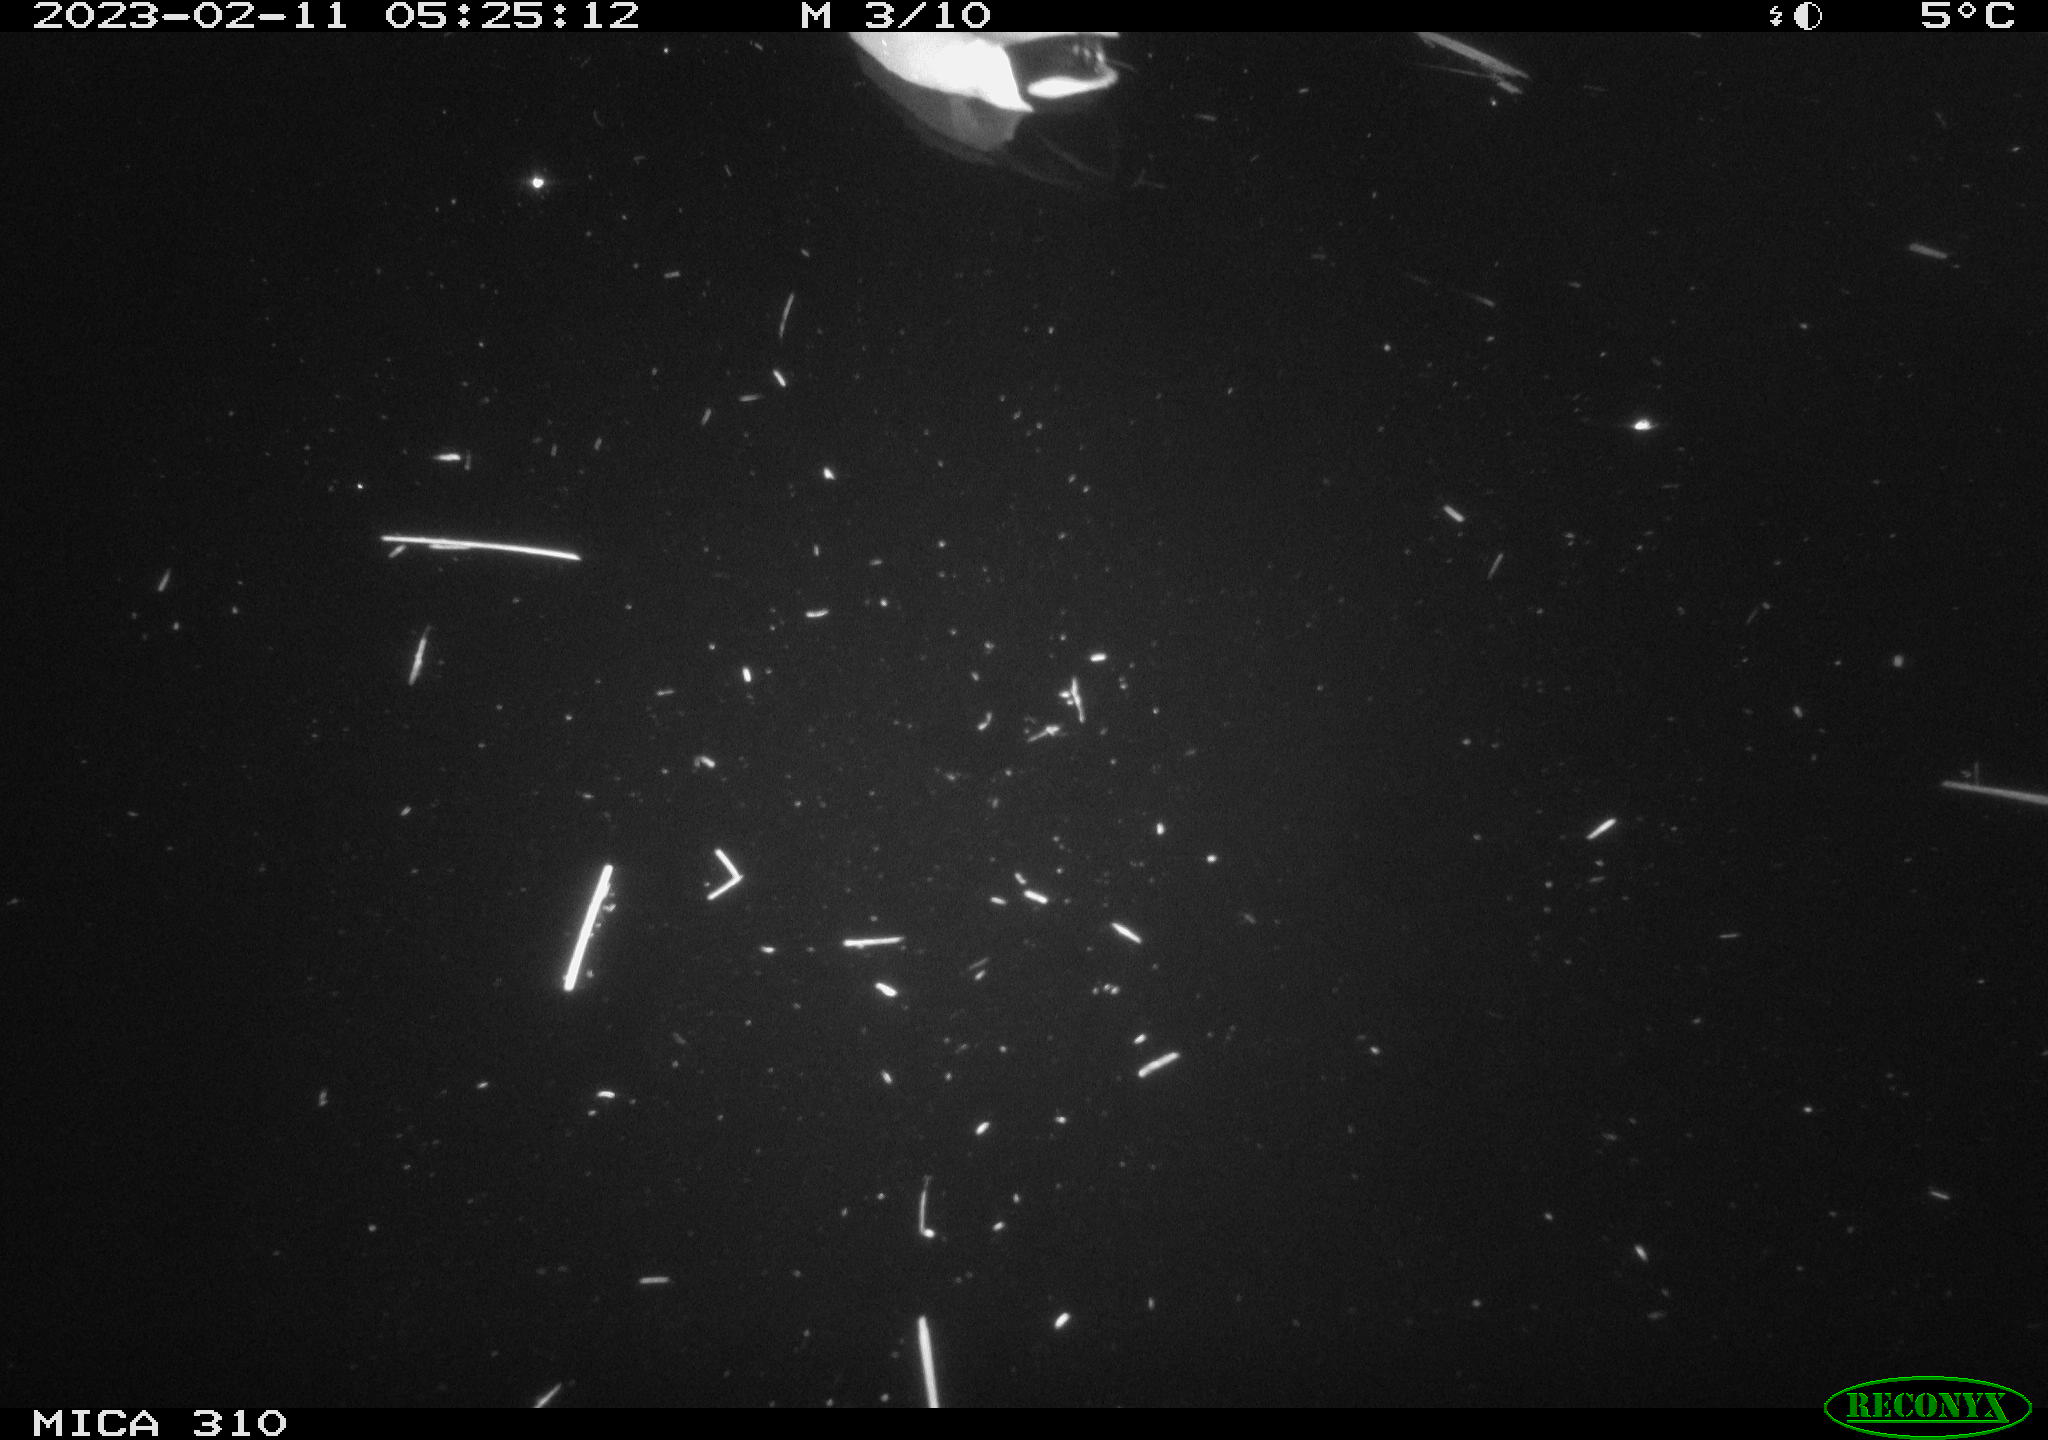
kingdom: Animalia
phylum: Chordata
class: Aves
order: Anseriformes
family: Anatidae
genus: Anas
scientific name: Anas
